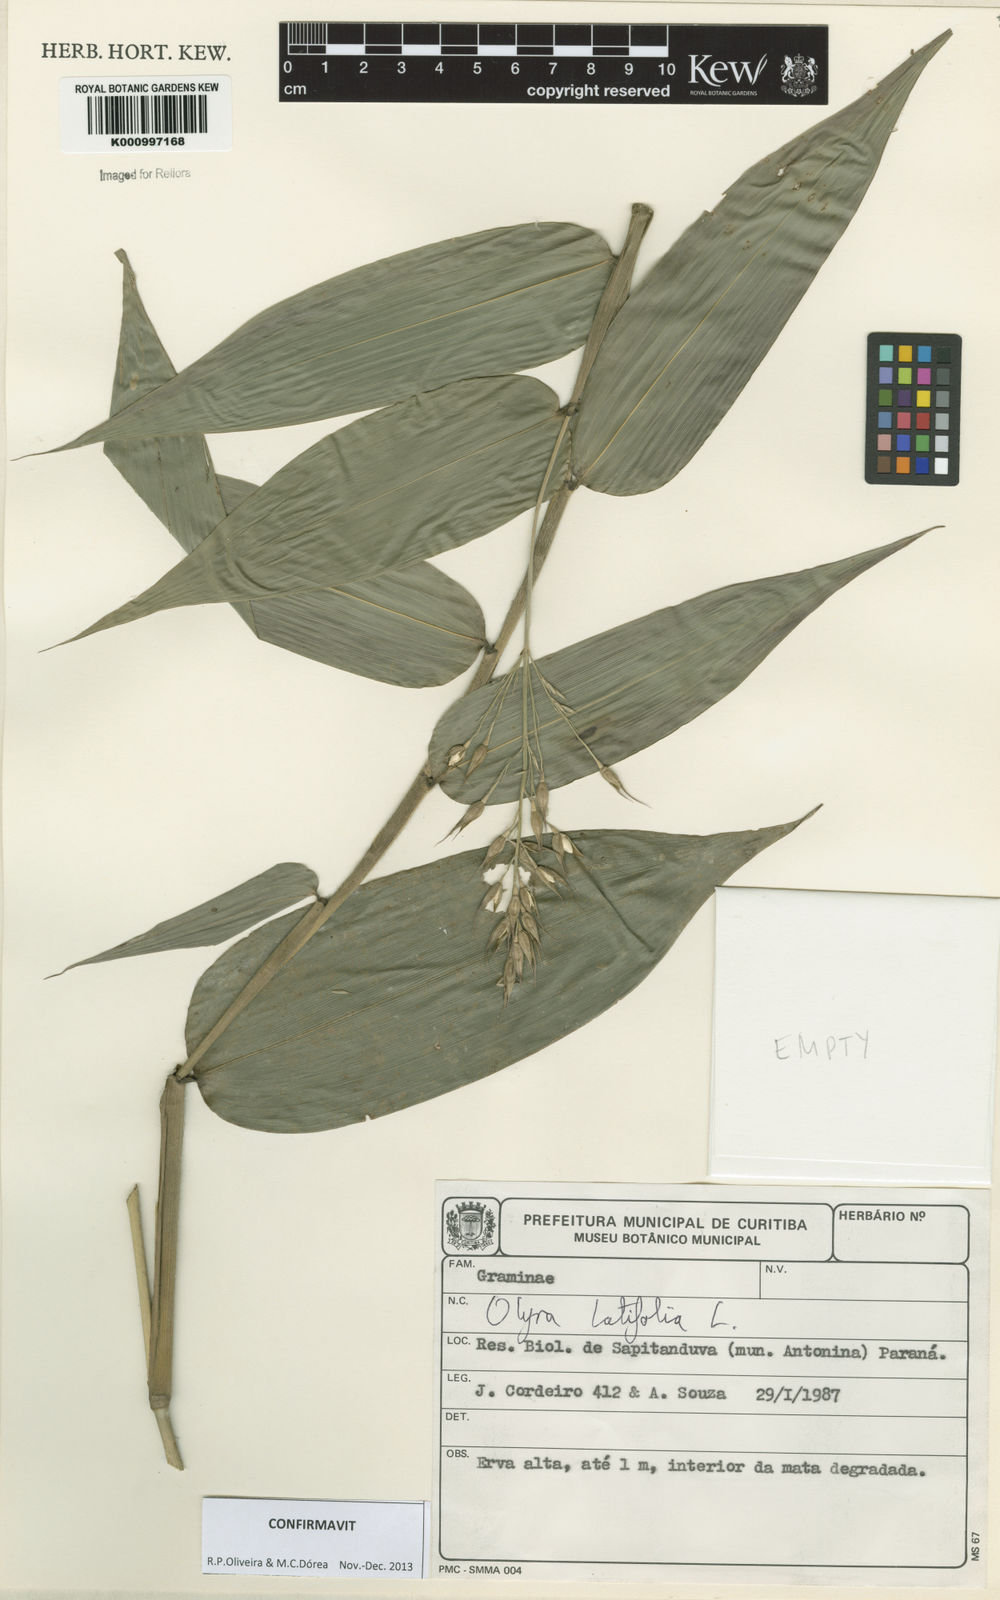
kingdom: Plantae
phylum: Tracheophyta
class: Liliopsida
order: Poales
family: Poaceae
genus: Olyra
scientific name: Olyra latifolia
